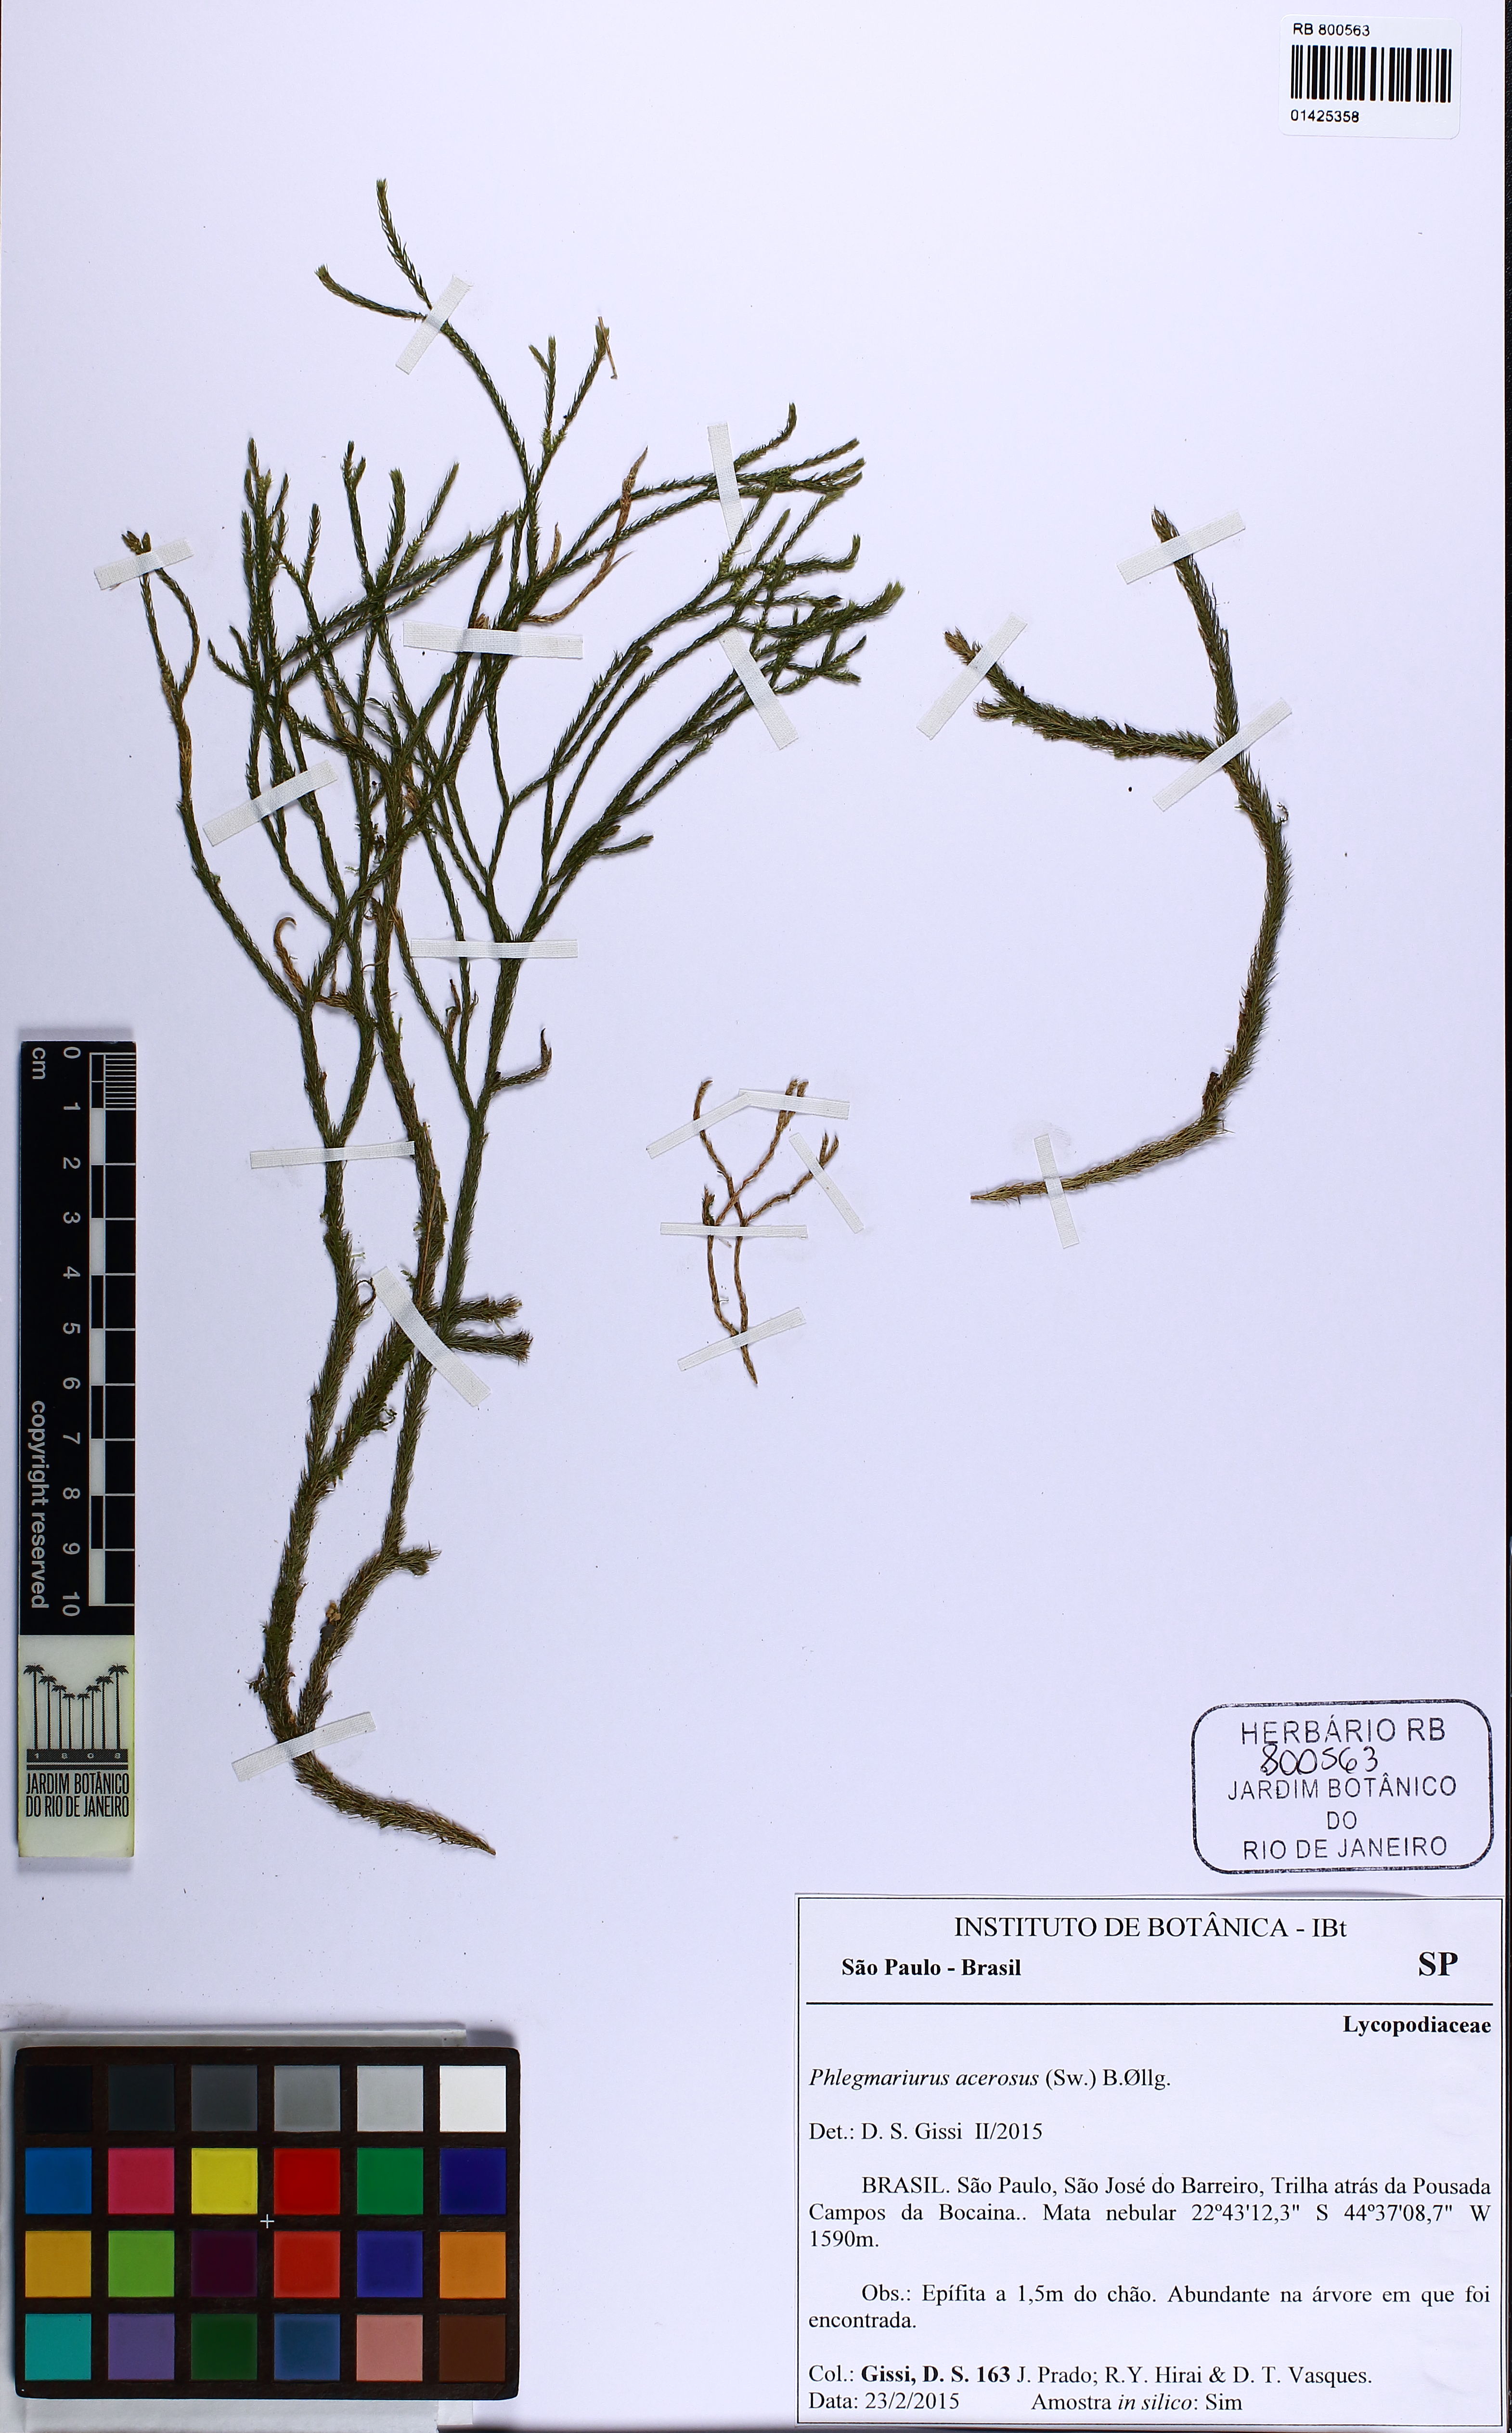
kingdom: Plantae
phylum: Tracheophyta
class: Lycopodiopsida
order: Lycopodiales
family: Lycopodiaceae
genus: Phlegmariurus
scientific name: Phlegmariurus acerosus
